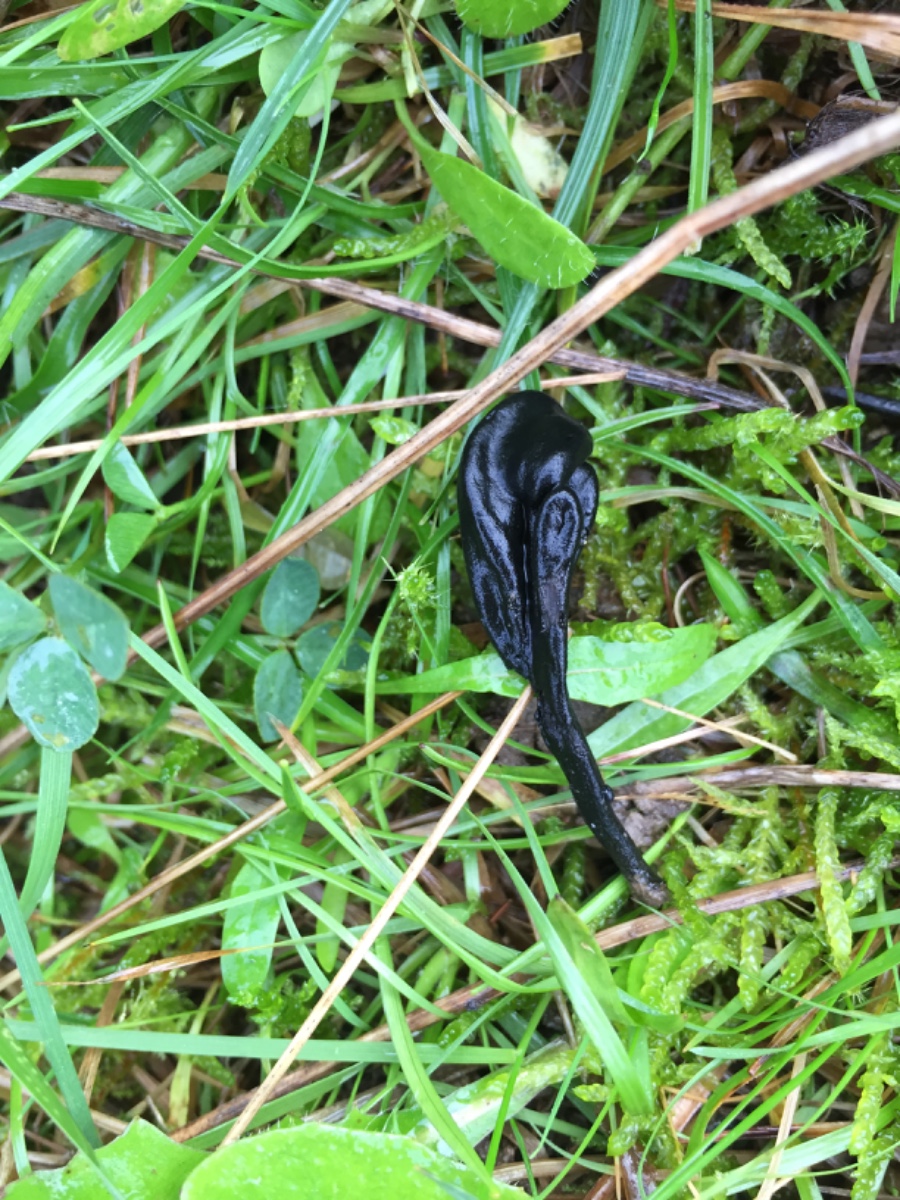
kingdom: Fungi
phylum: Ascomycota
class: Geoglossomycetes
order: Geoglossales
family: Geoglossaceae
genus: Trichoglossum
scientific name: Trichoglossum walteri
